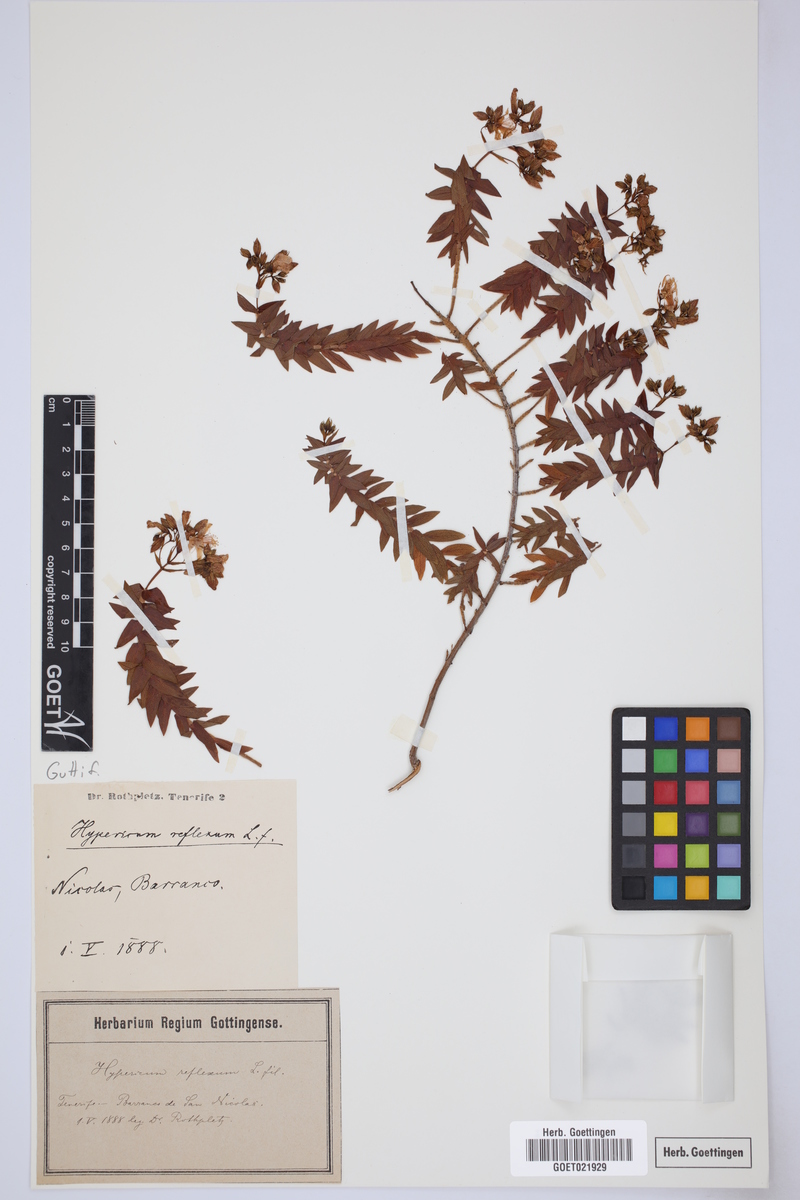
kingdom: Plantae
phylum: Tracheophyta
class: Magnoliopsida
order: Malpighiales
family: Hypericaceae
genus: Hypericum
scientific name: Hypericum reflexum
